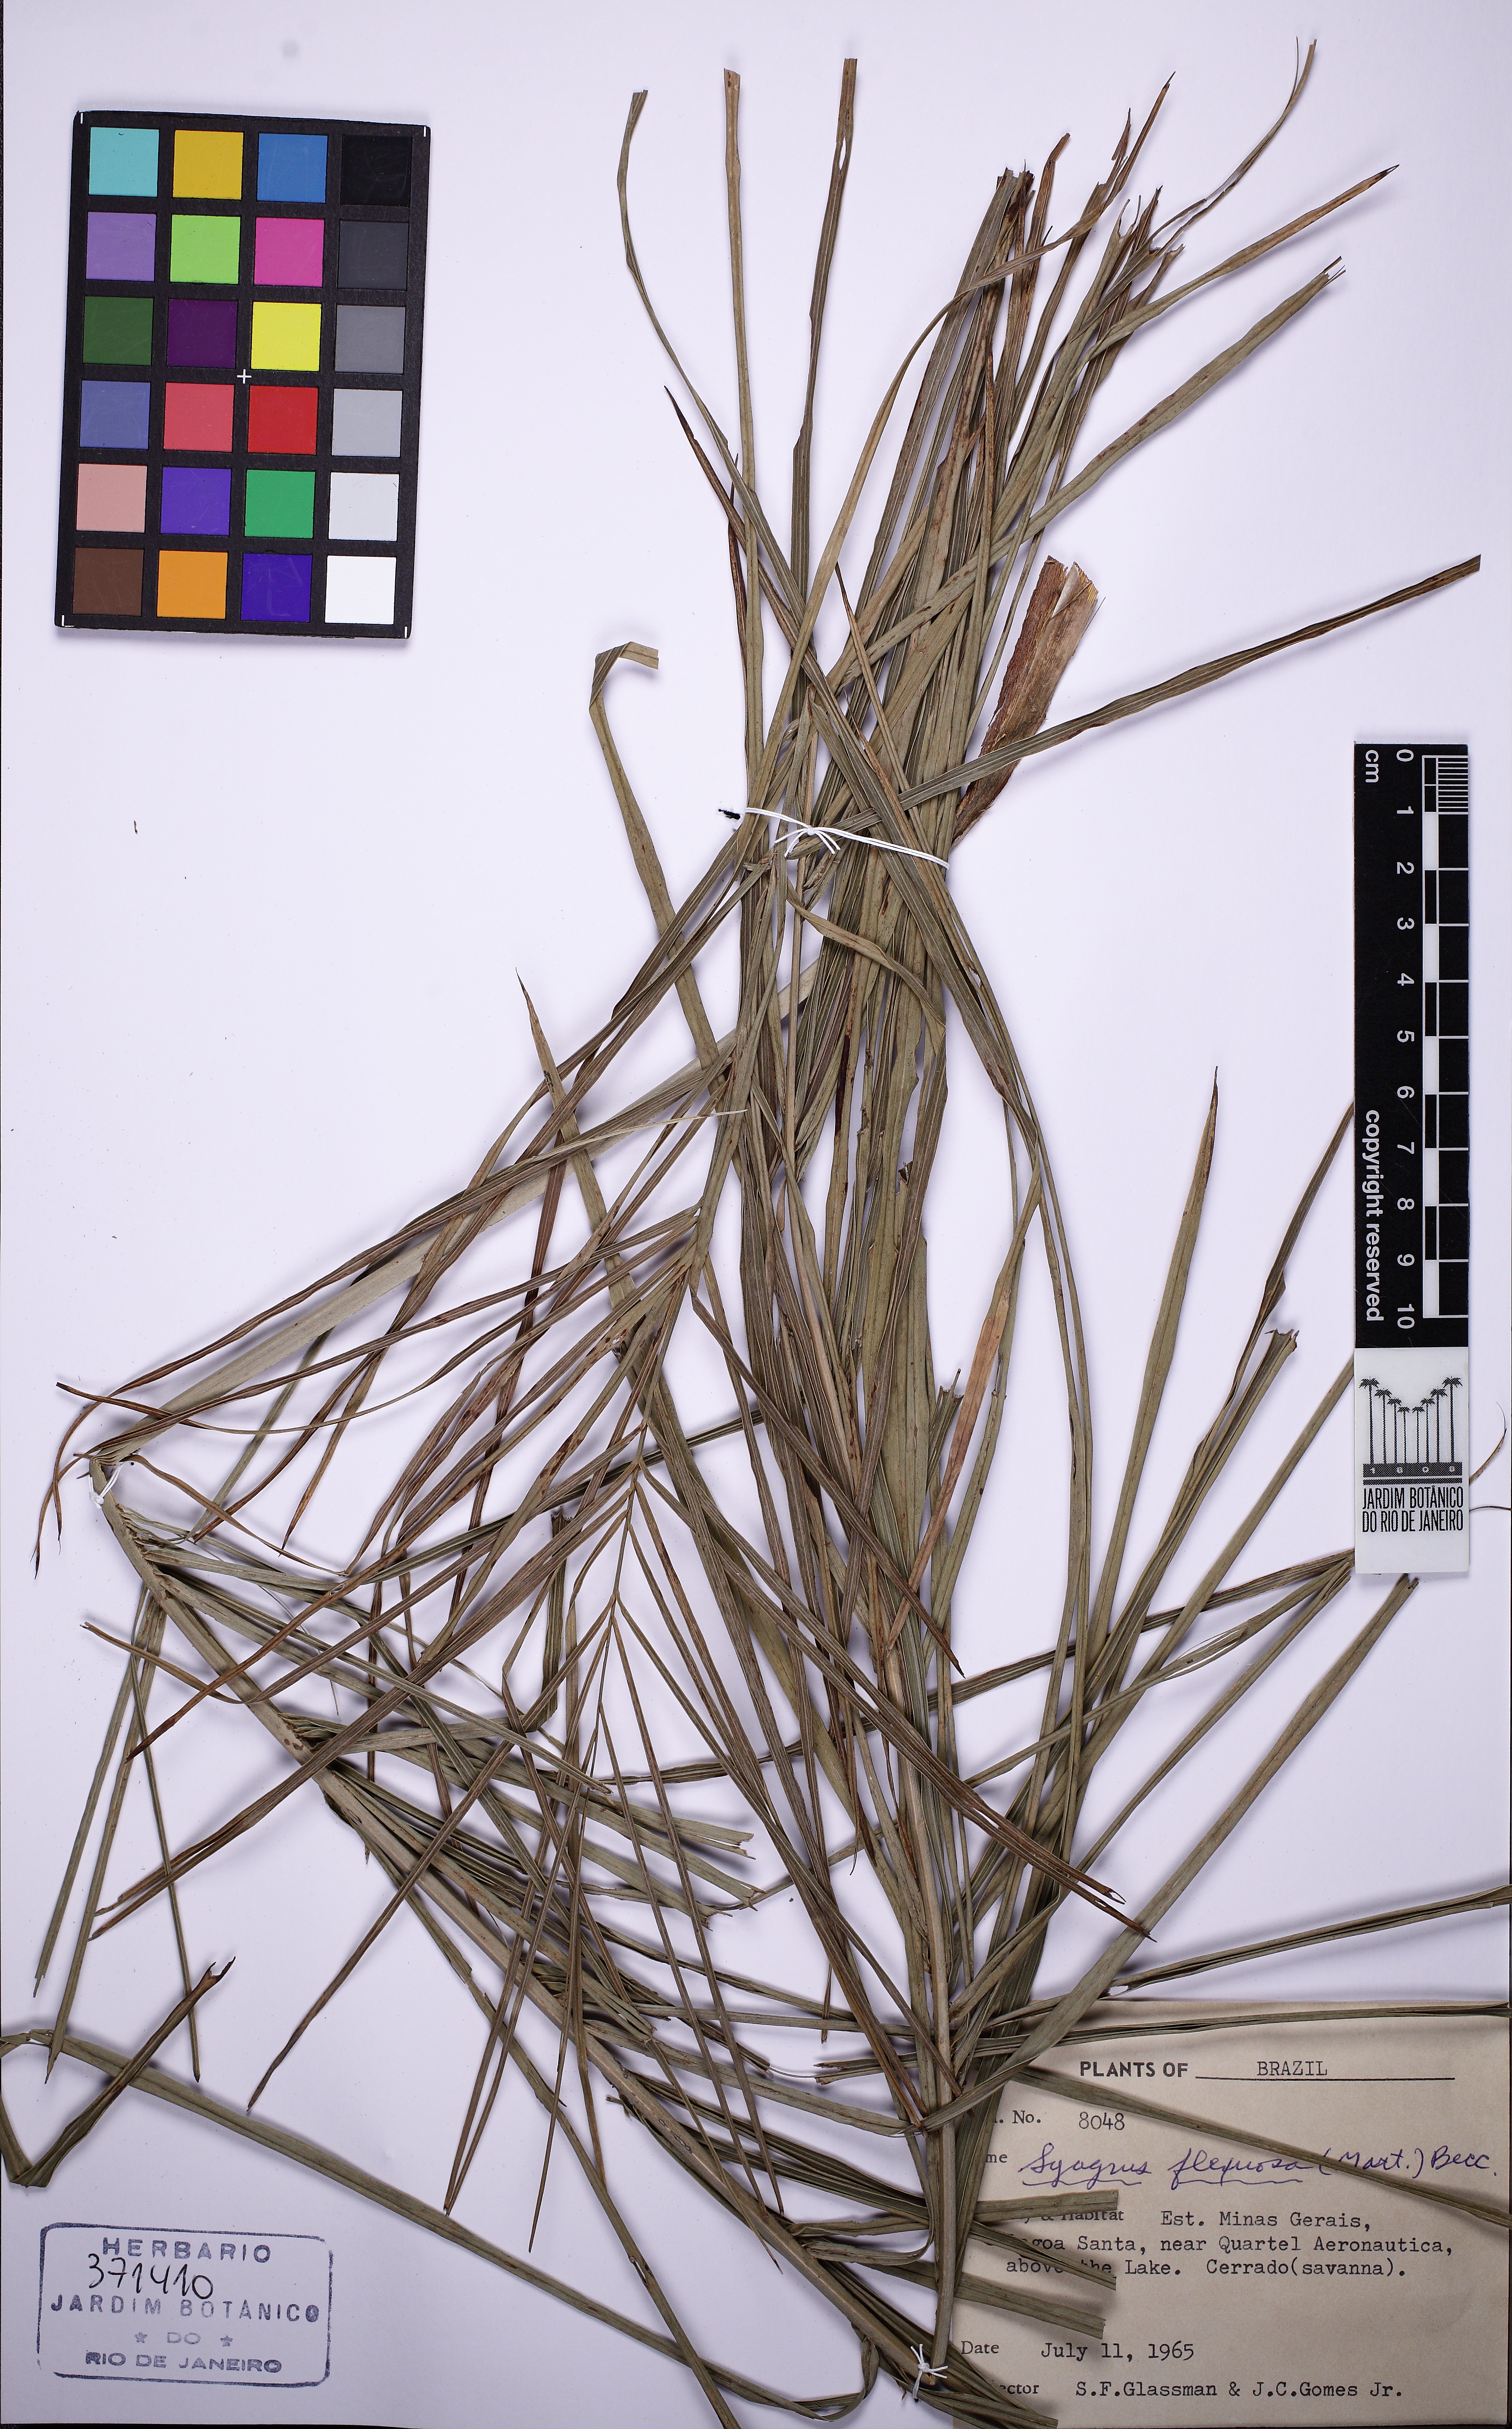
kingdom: Plantae
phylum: Tracheophyta
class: Liliopsida
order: Arecales
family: Arecaceae
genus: Syagrus
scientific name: Syagrus flexuosa
